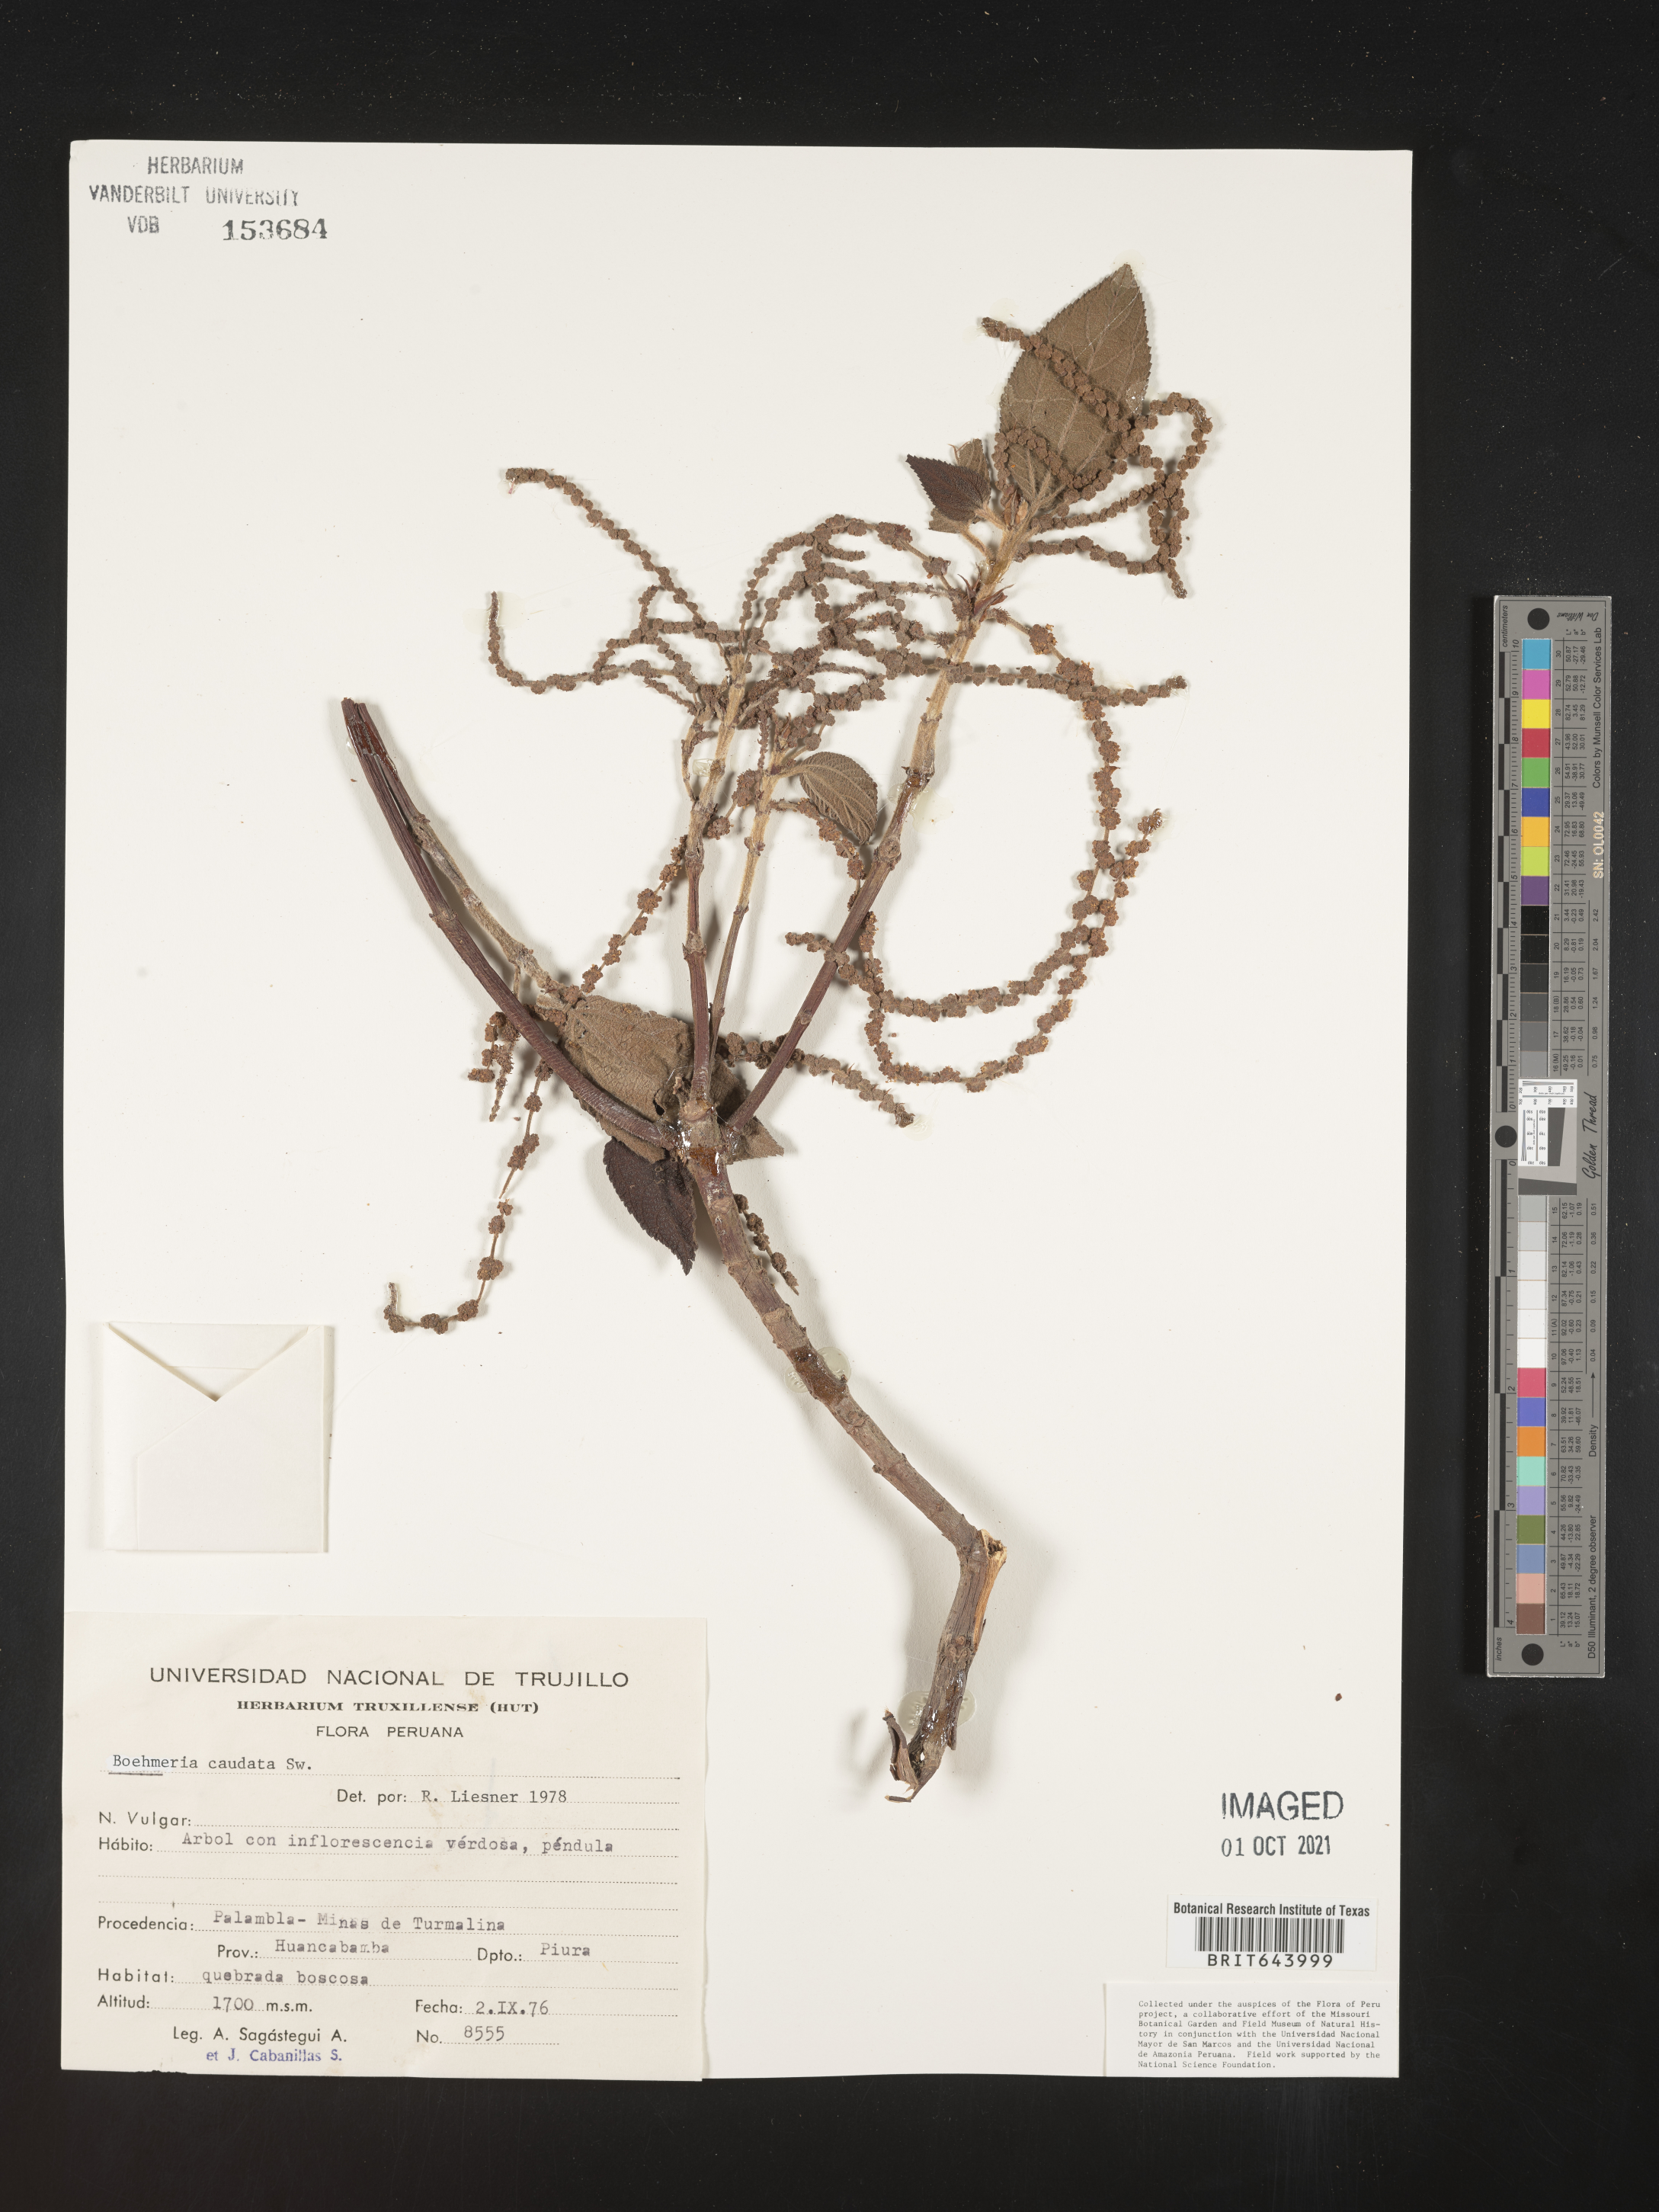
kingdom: Plantae
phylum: Tracheophyta
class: Magnoliopsida
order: Rosales
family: Urticaceae
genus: Boehmeria
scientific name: Boehmeria
